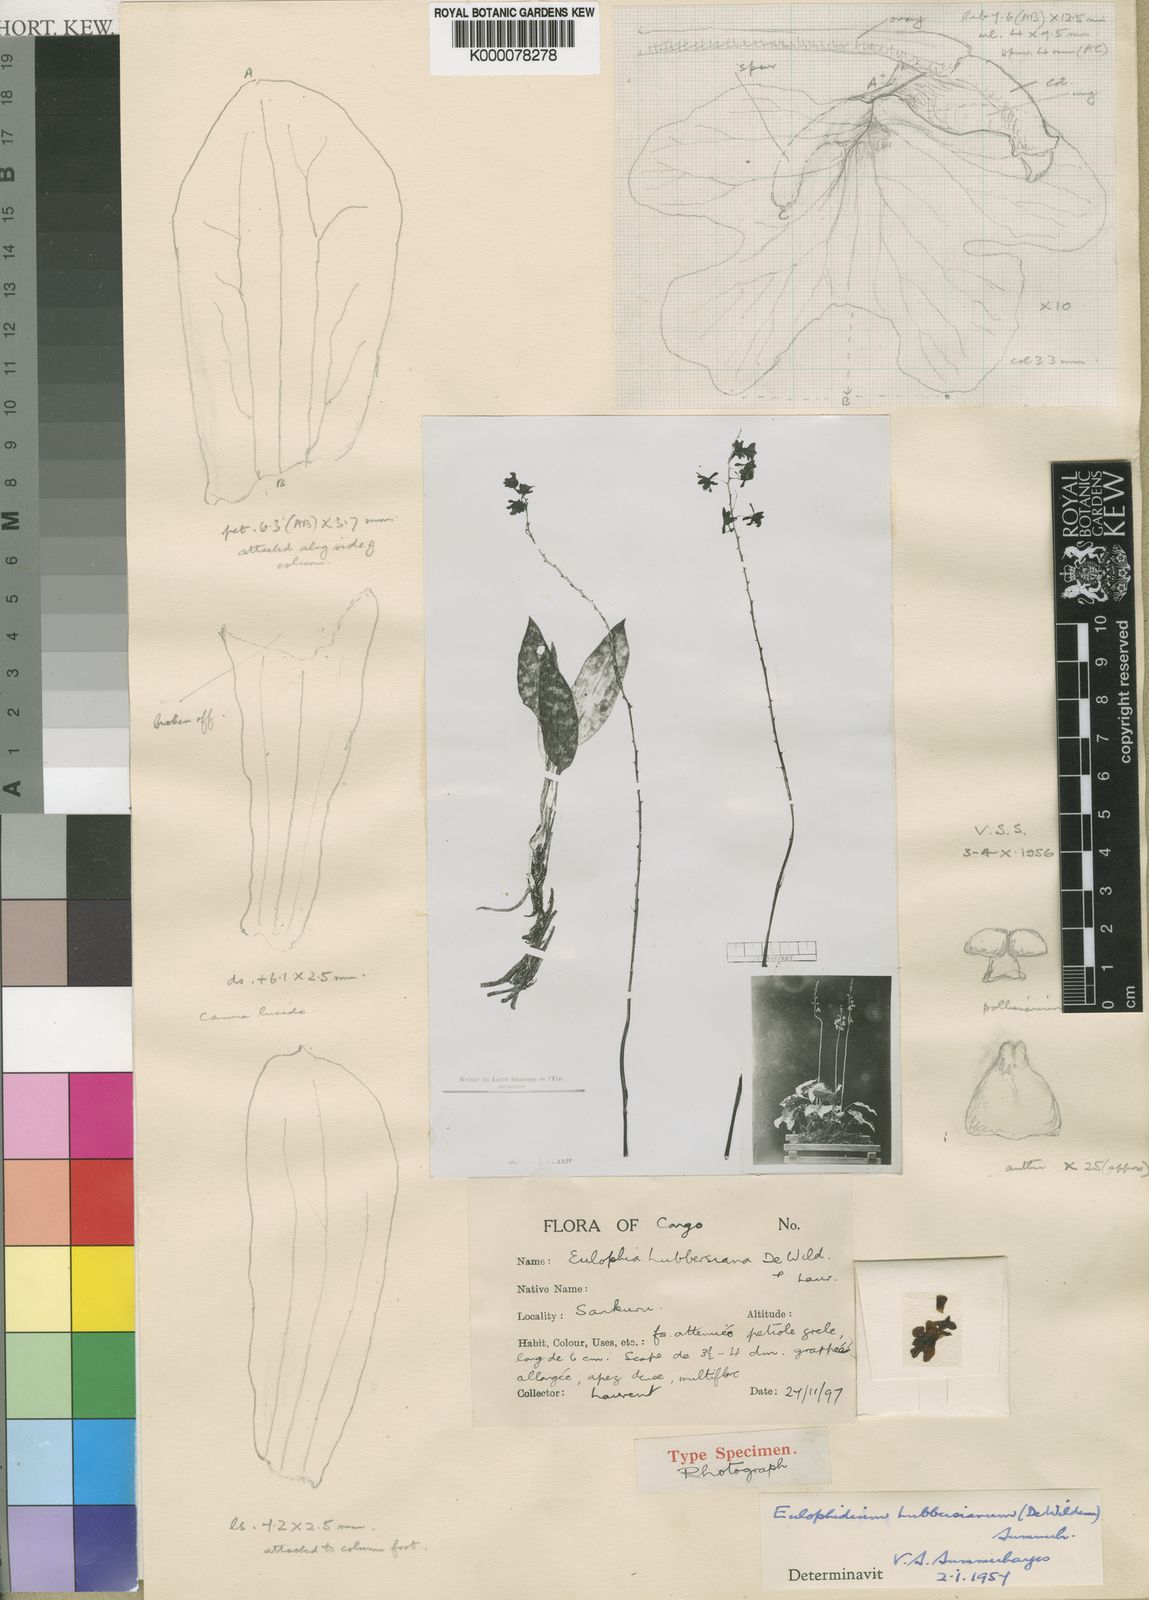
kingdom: Plantae
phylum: Tracheophyta
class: Liliopsida
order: Asparagales
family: Orchidaceae
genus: Eulophia
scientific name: Eulophia lubbersiana
